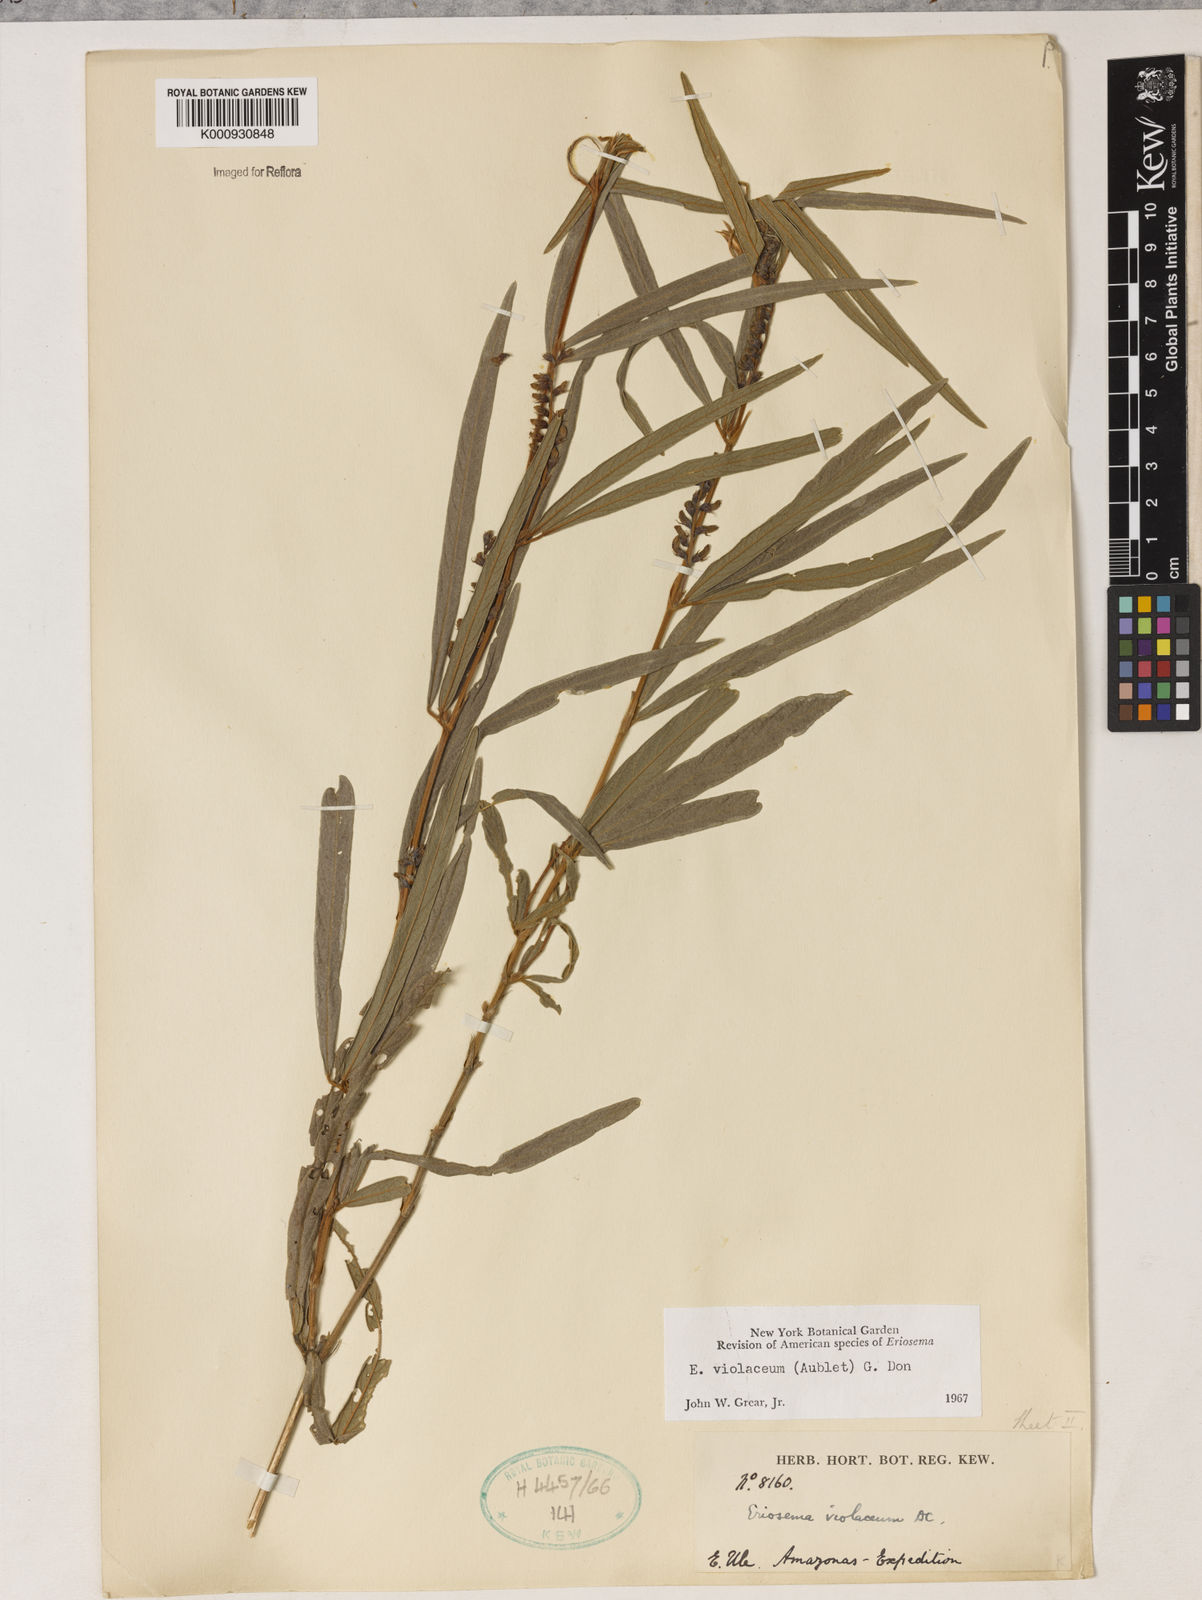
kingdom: Plantae
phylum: Tracheophyta
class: Magnoliopsida
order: Fabales
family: Fabaceae
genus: Eriosema
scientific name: Eriosema violaceum
